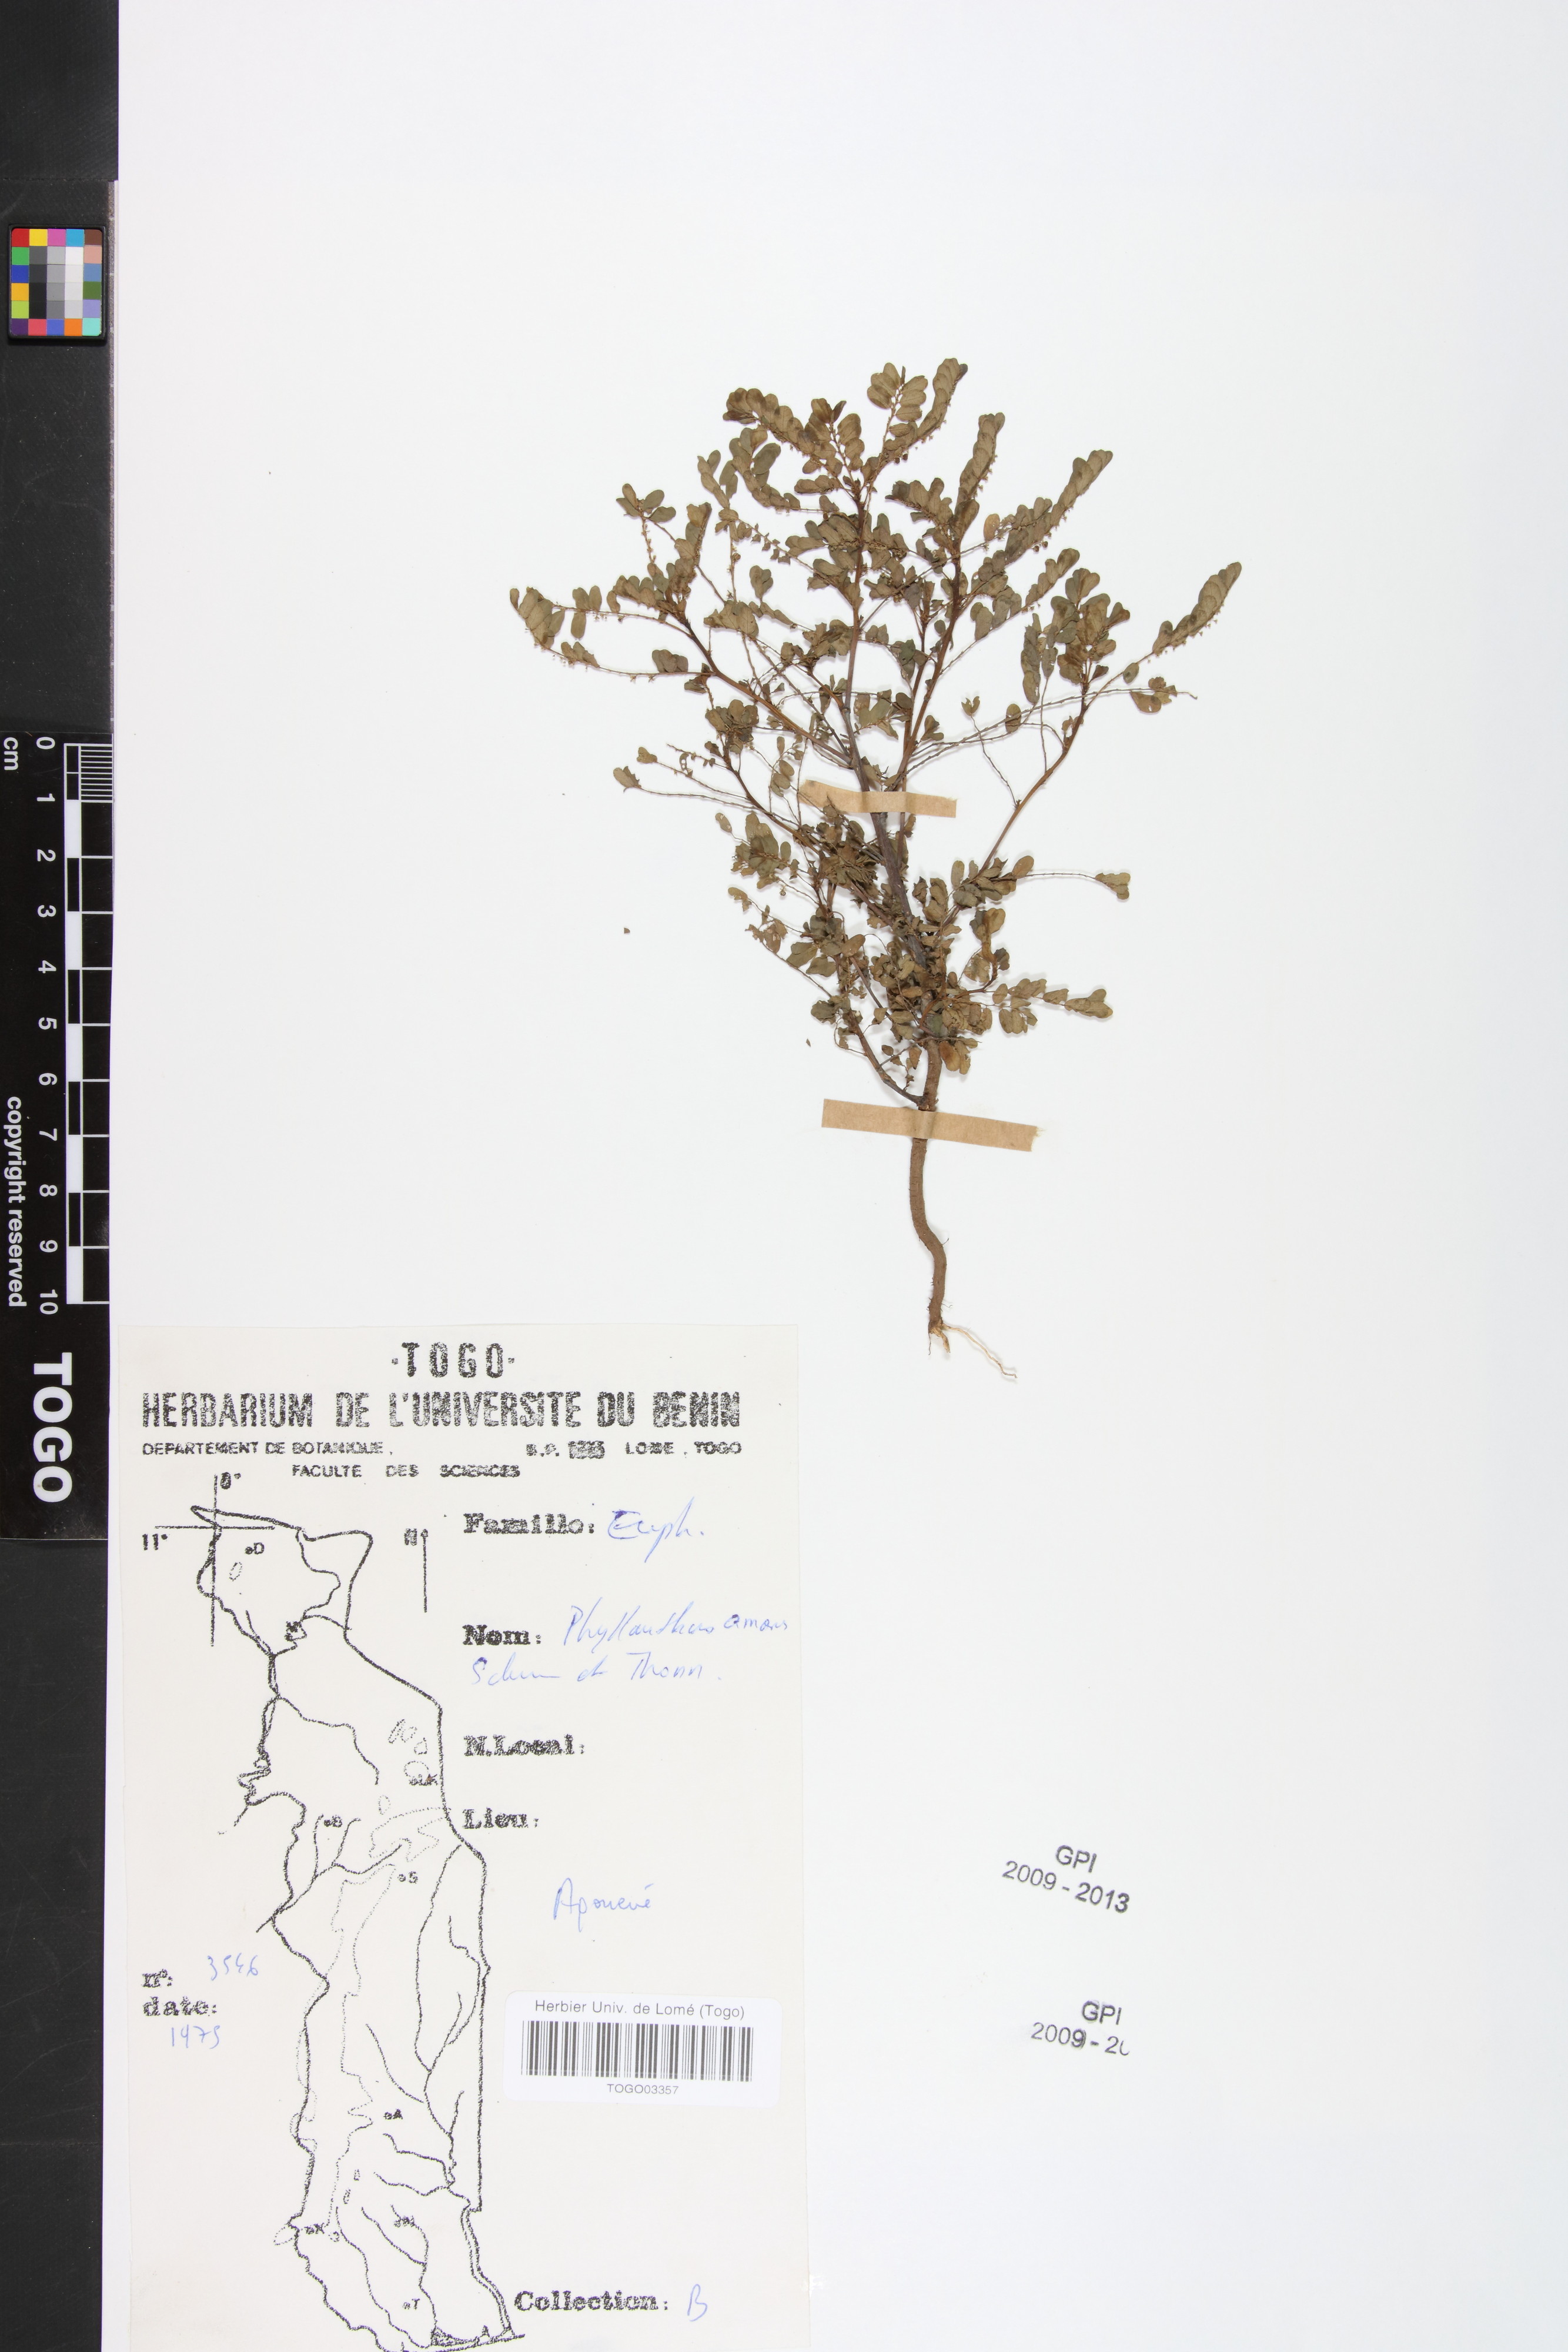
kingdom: Plantae
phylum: Tracheophyta
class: Magnoliopsida
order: Malpighiales
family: Phyllanthaceae
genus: Phyllanthus
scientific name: Phyllanthus amarus
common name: Carry me seed
